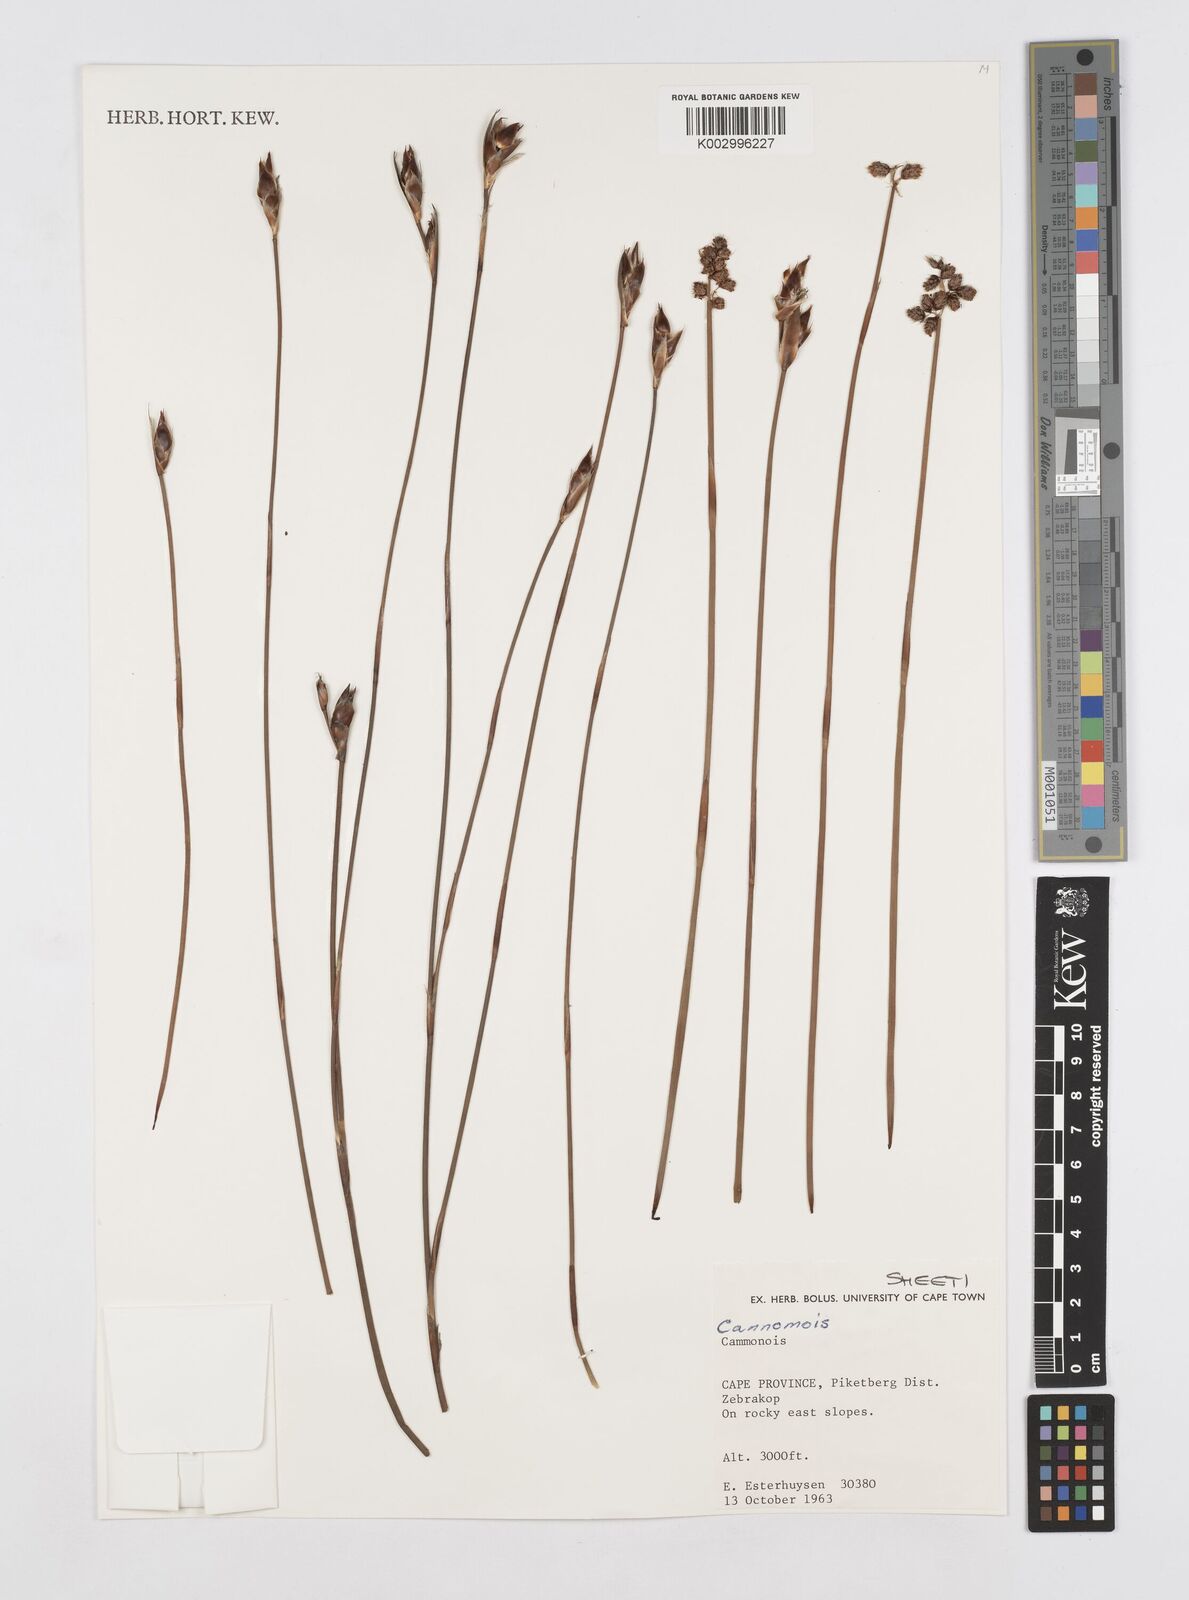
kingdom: Plantae
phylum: Tracheophyta
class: Liliopsida
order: Poales
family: Restionaceae
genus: Cannomois
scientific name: Cannomois
